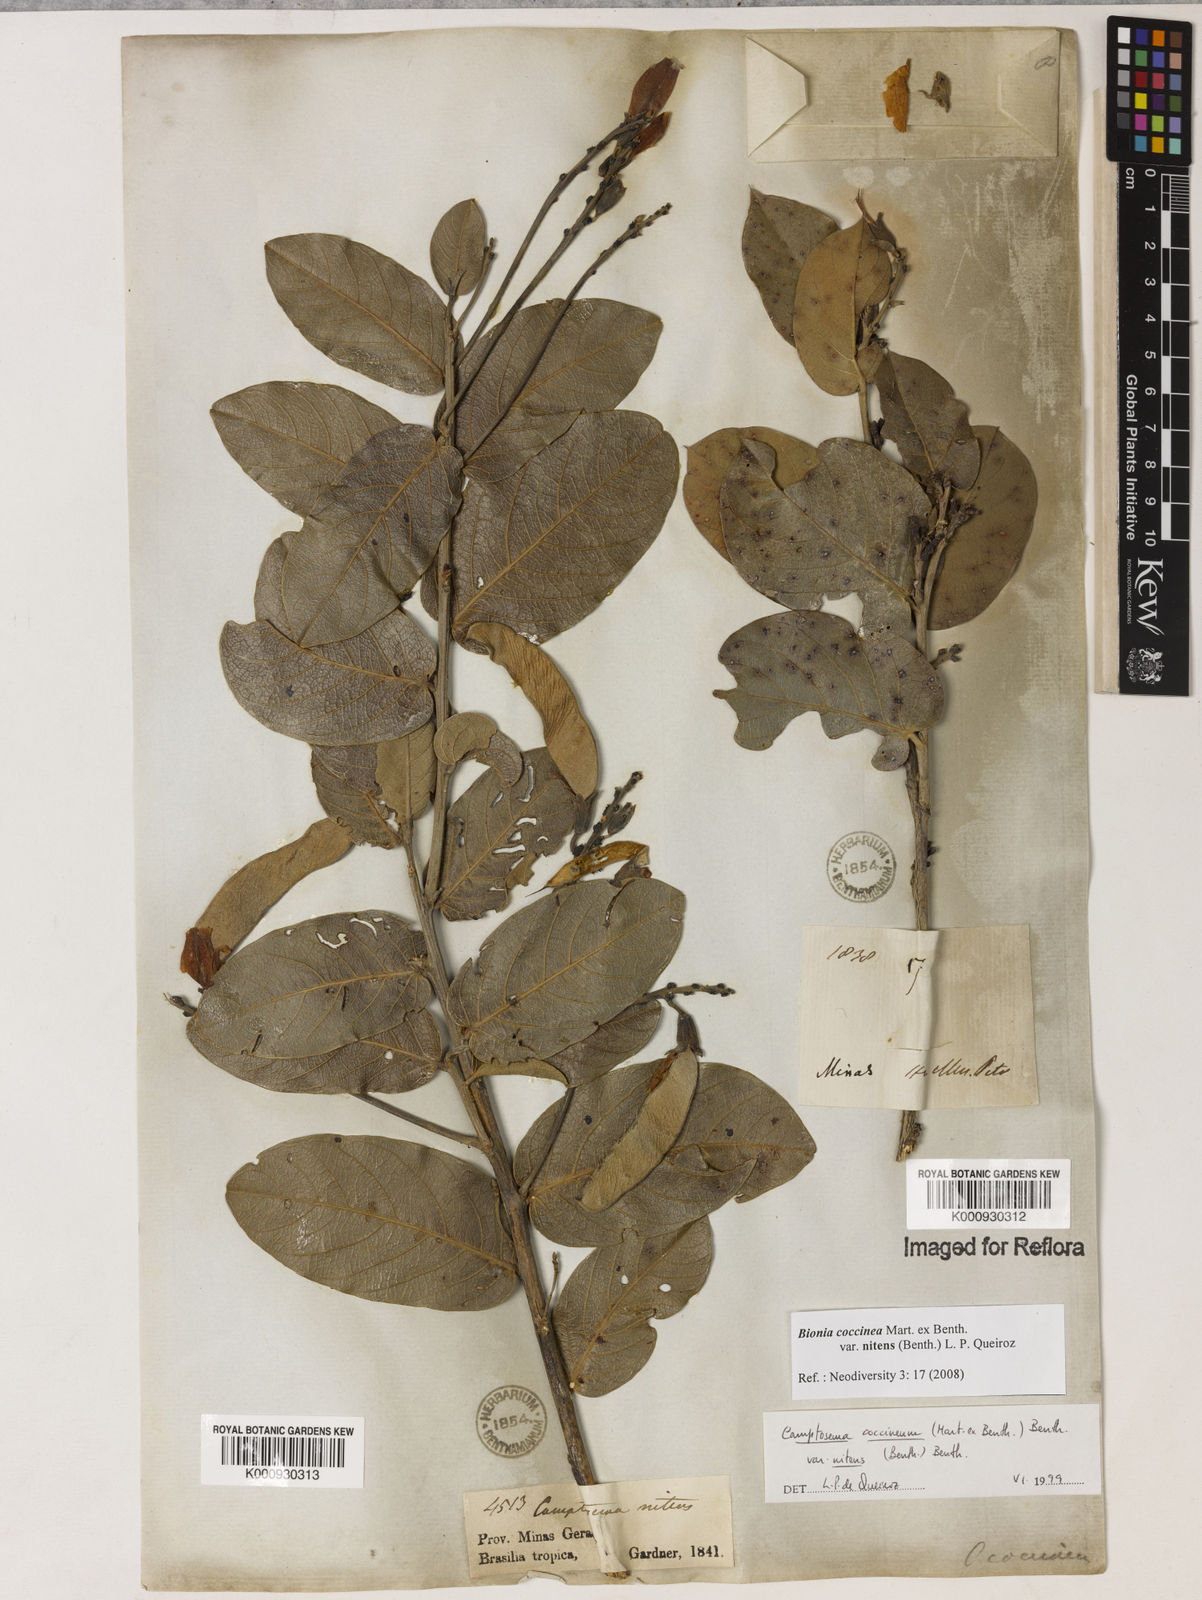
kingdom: Plantae
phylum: Tracheophyta
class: Magnoliopsida
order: Fabales
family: Fabaceae
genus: Camptosema
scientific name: Camptosema coccineum
